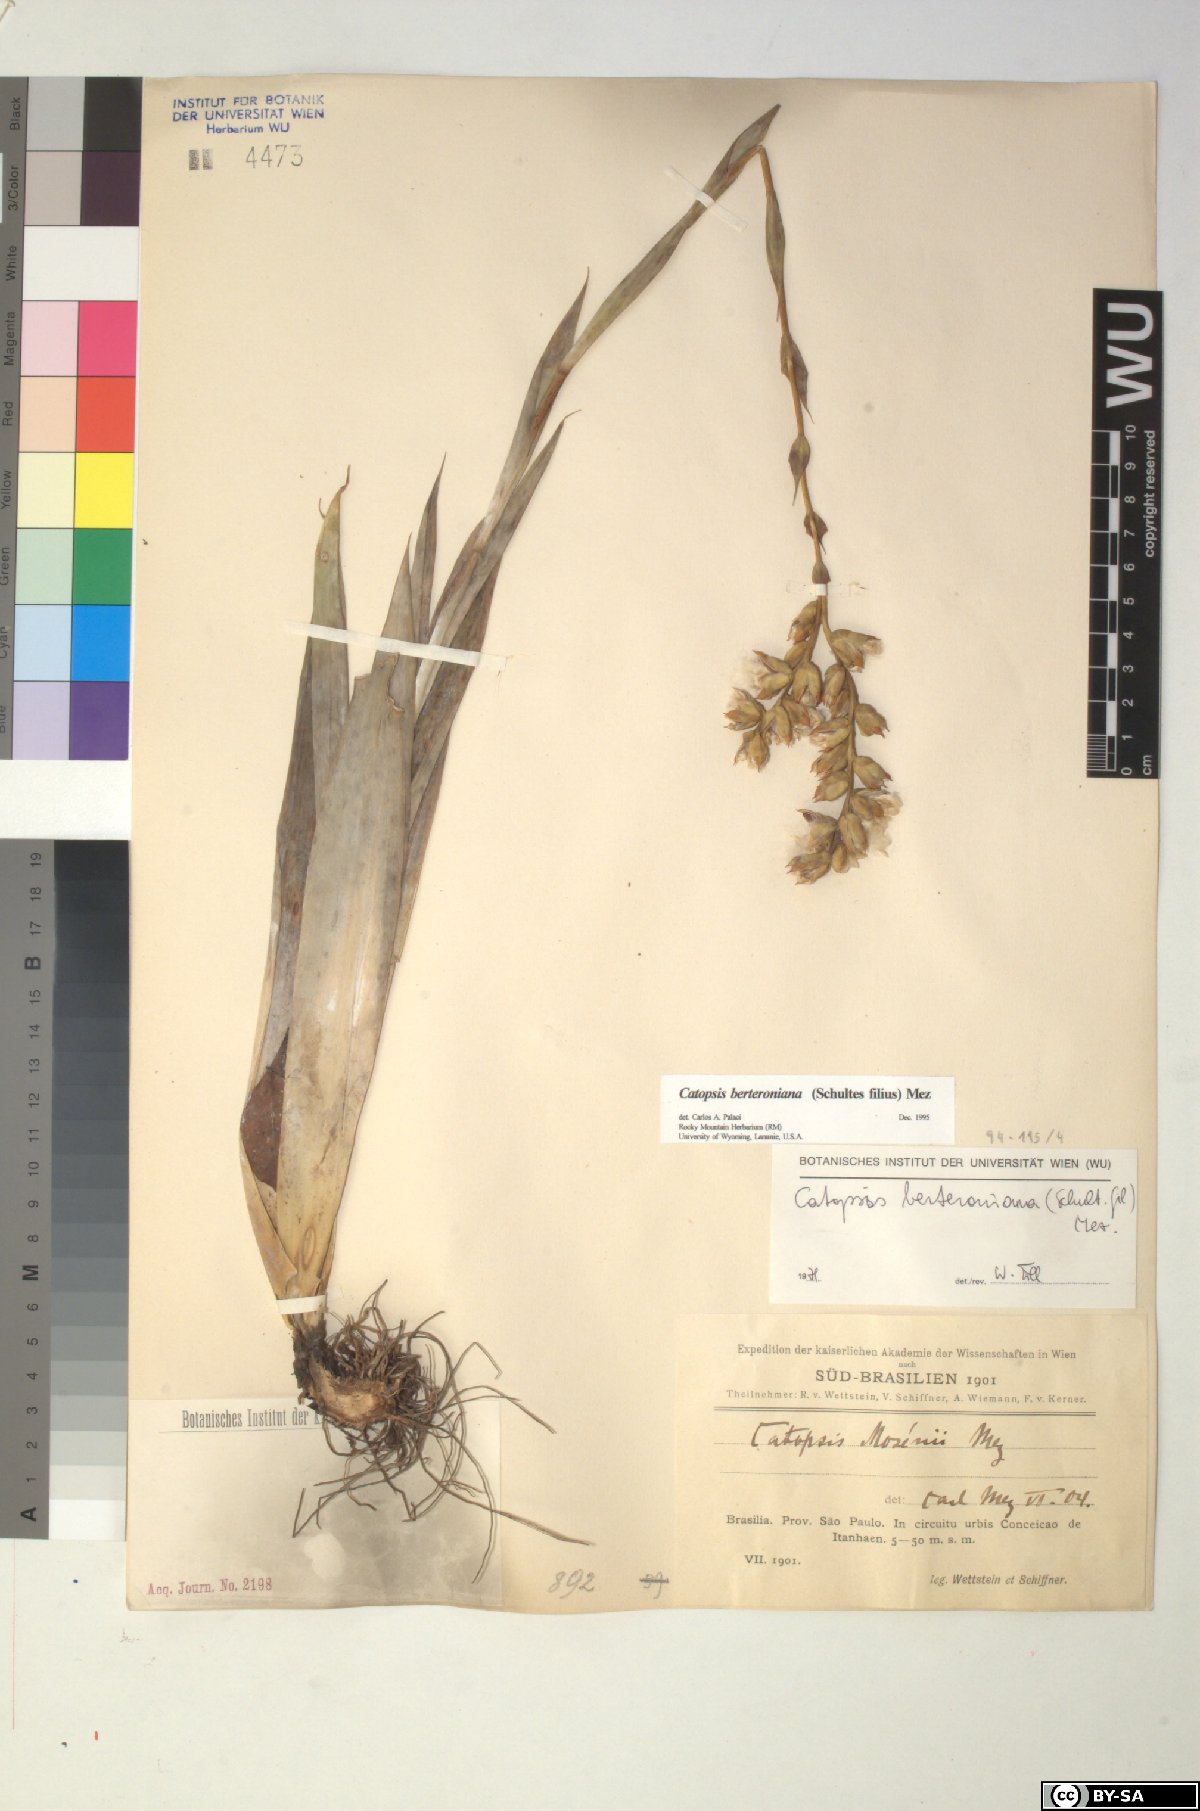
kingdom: Plantae
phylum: Tracheophyta
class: Liliopsida
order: Poales
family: Bromeliaceae
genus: Catopsis
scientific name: Catopsis berteroniana
